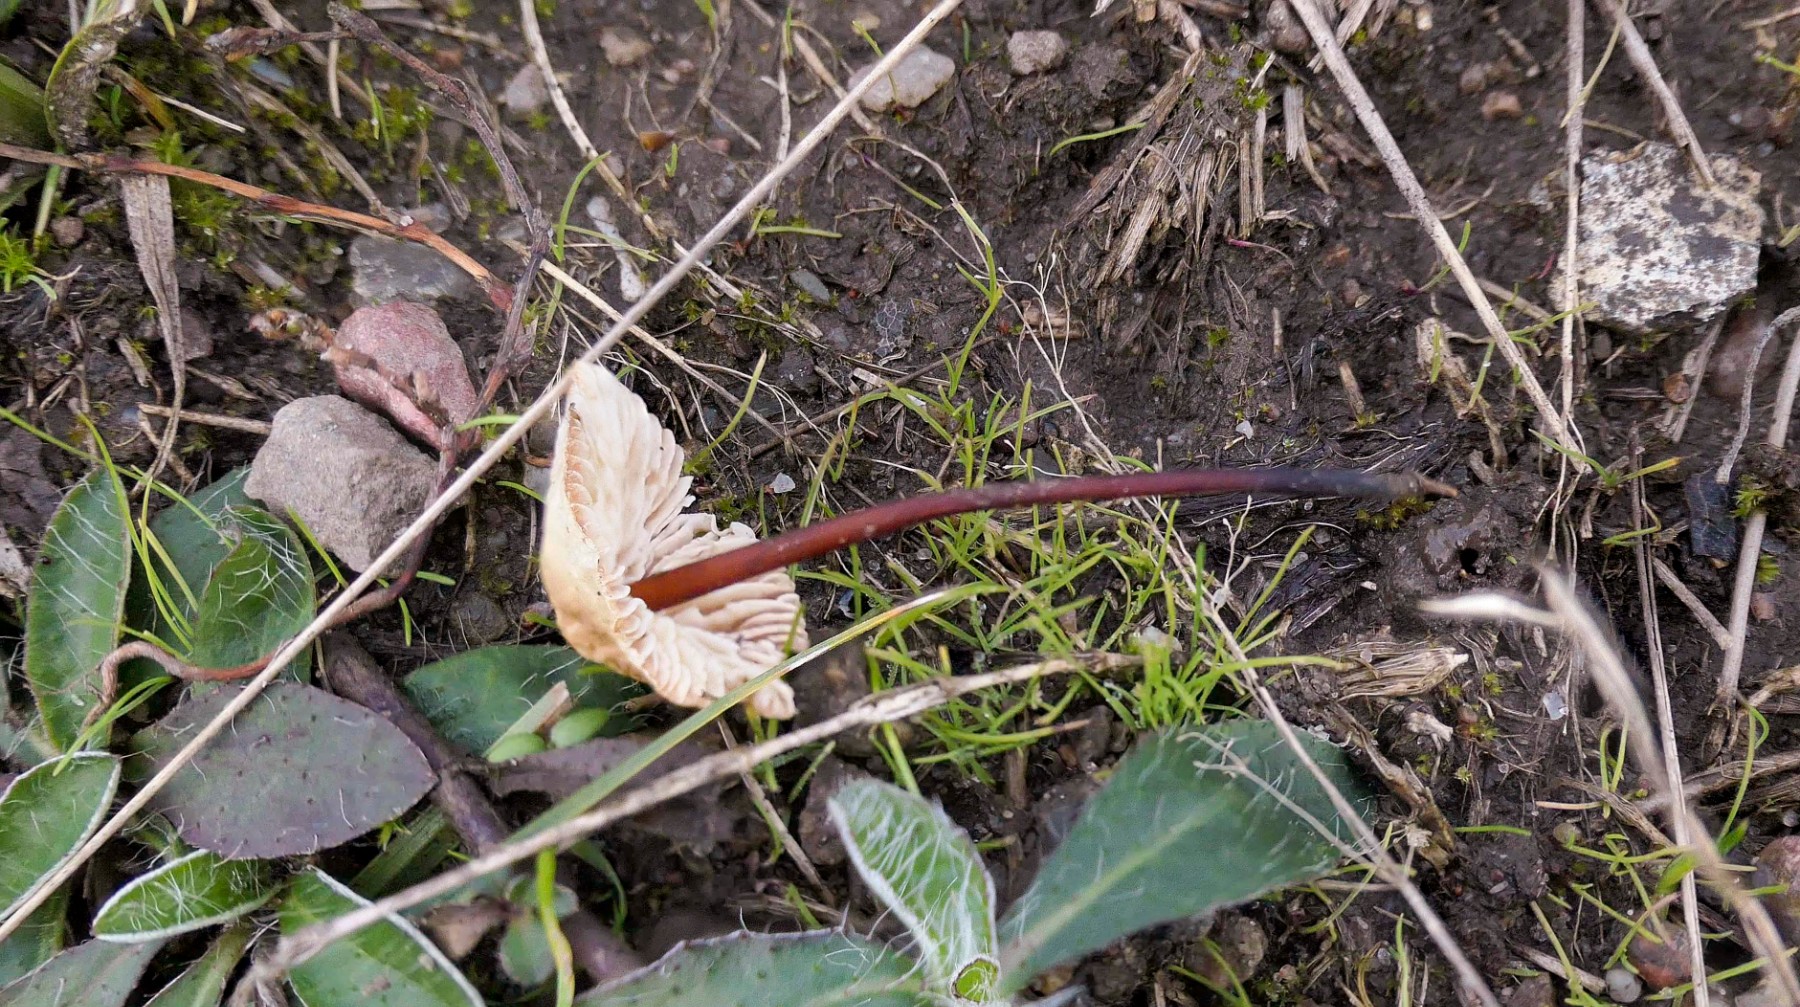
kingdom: Fungi
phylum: Basidiomycota
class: Agaricomycetes
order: Agaricales
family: Omphalotaceae
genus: Mycetinis
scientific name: Mycetinis scorodonius
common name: lille løghat
